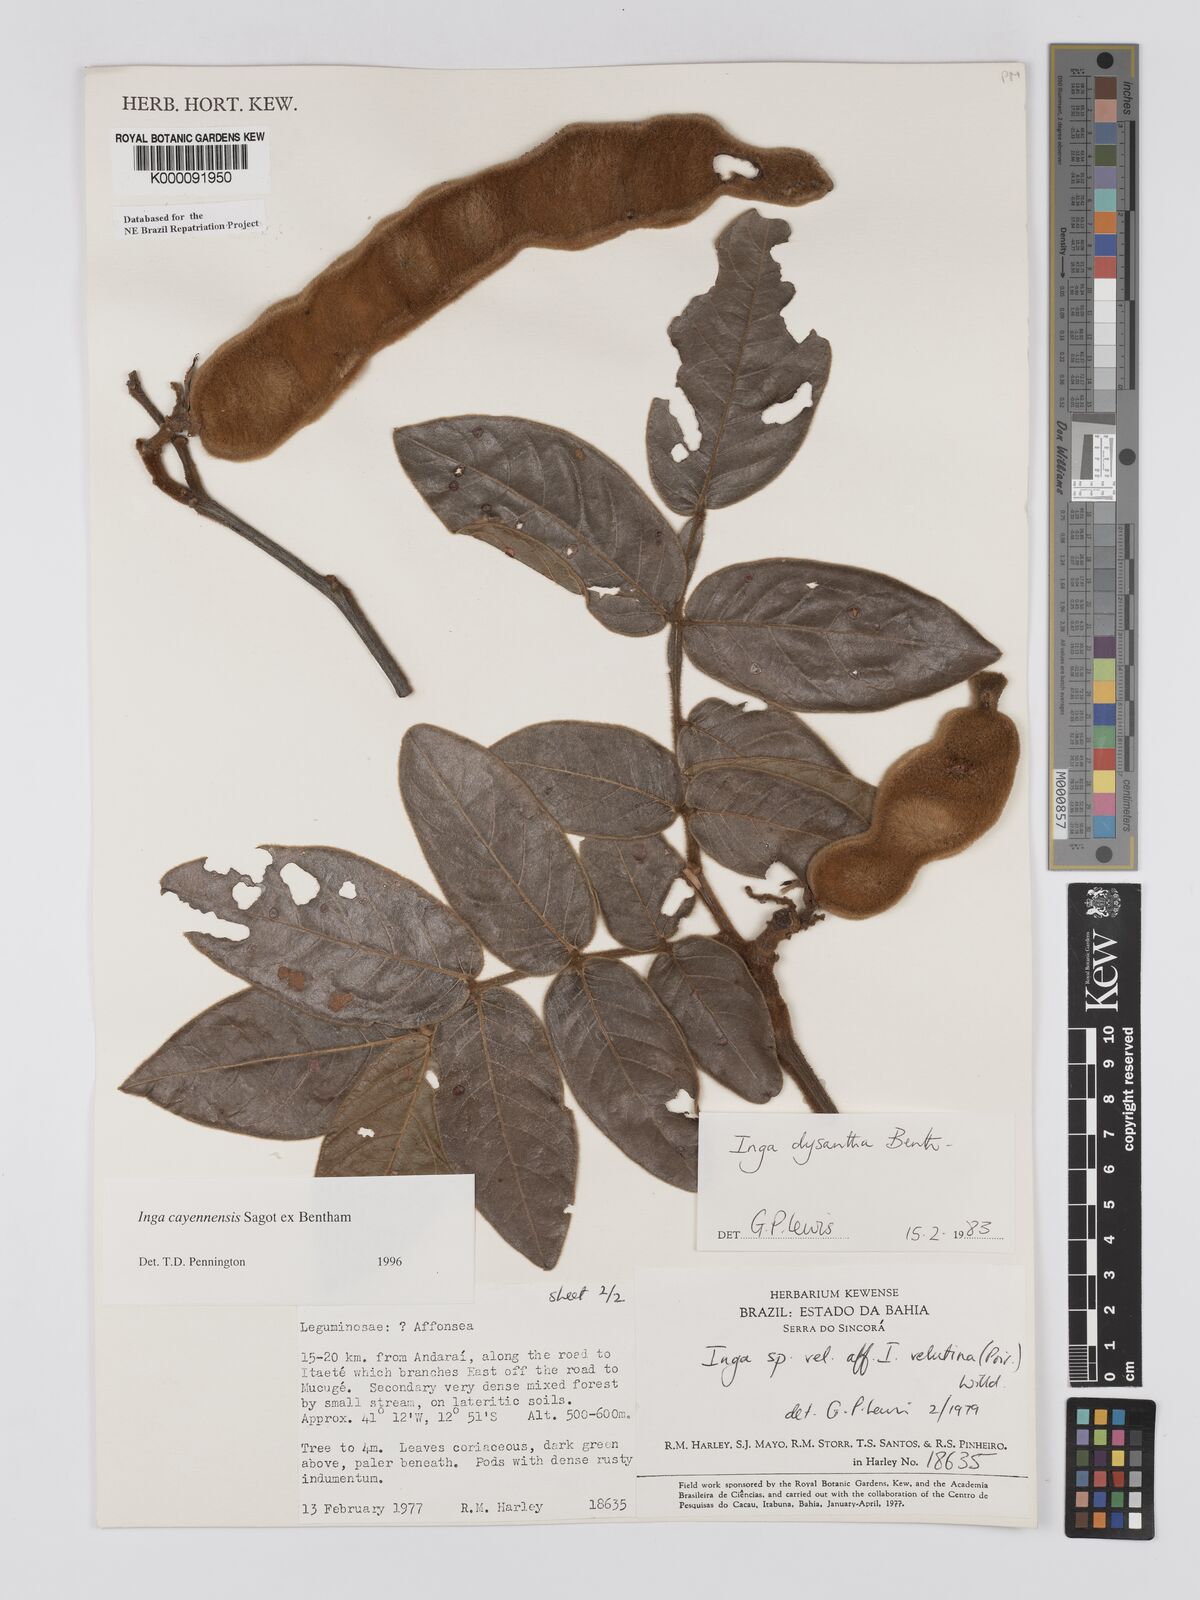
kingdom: Plantae
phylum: Tracheophyta
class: Magnoliopsida
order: Fabales
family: Fabaceae
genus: Inga
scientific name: Inga
